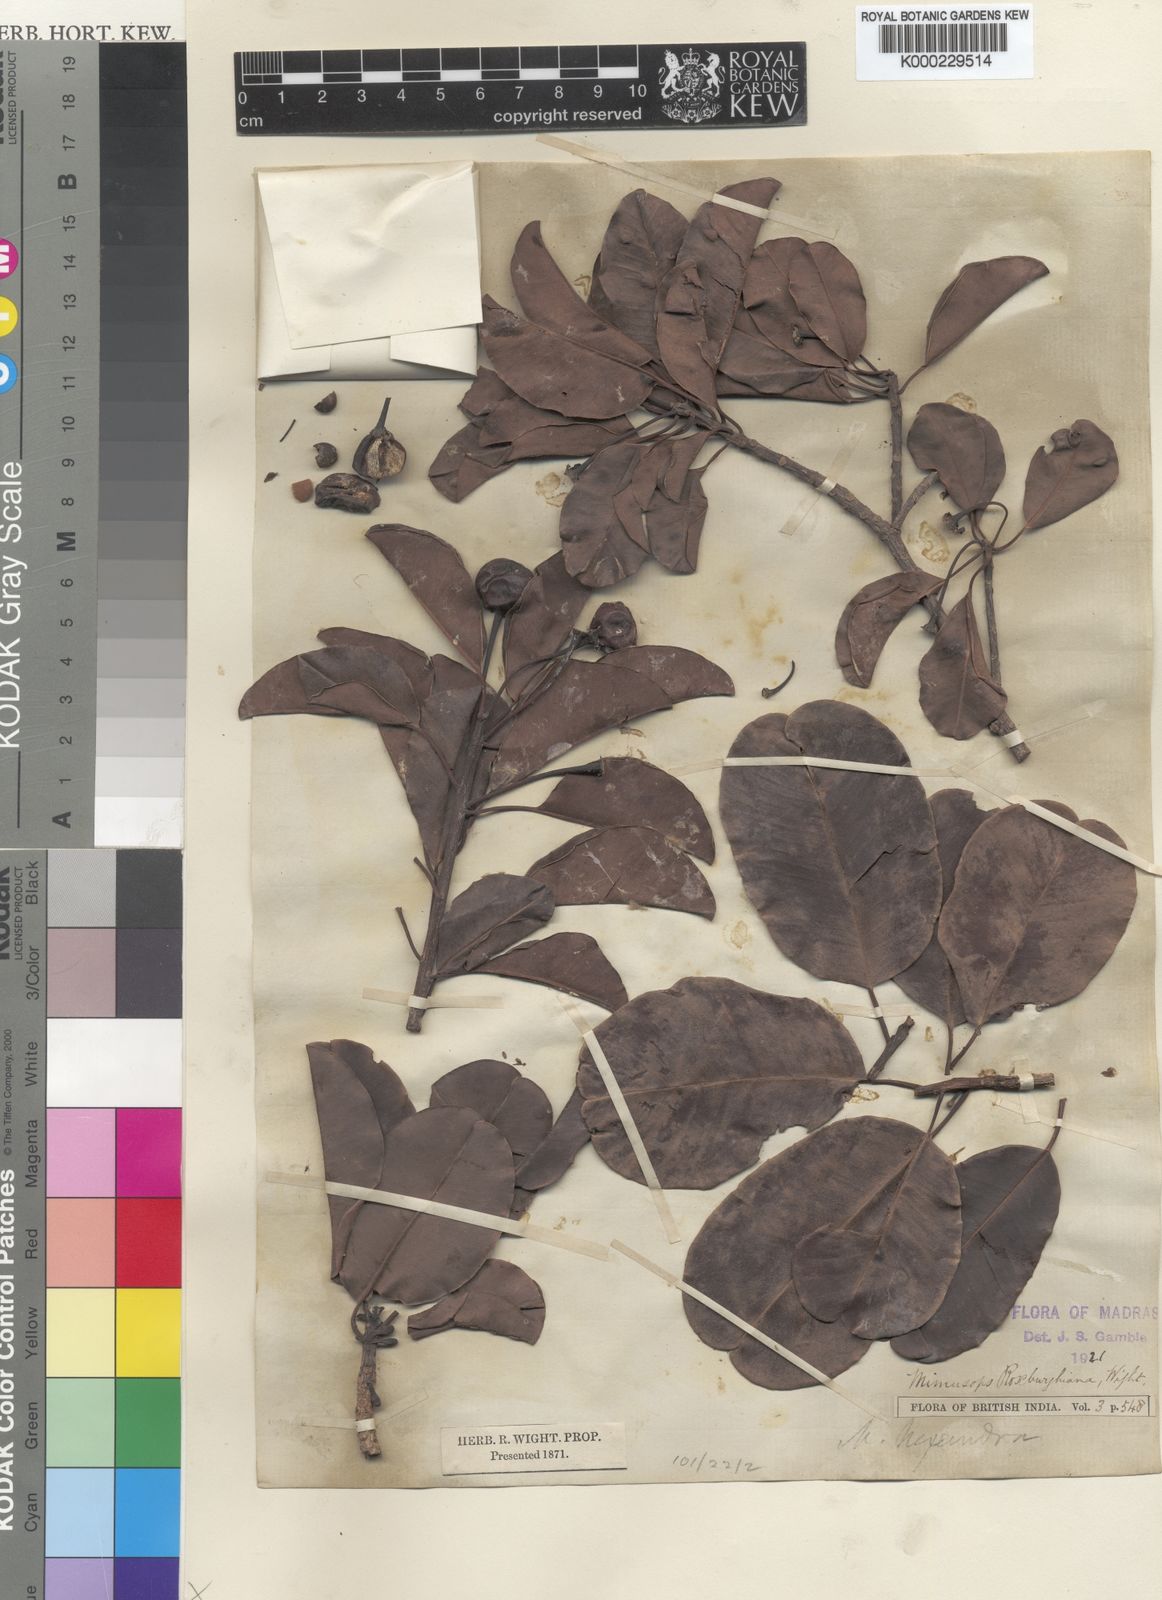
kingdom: Plantae
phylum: Tracheophyta
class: Magnoliopsida
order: Ericales
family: Sapotaceae
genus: Manilkara
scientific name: Manilkara
